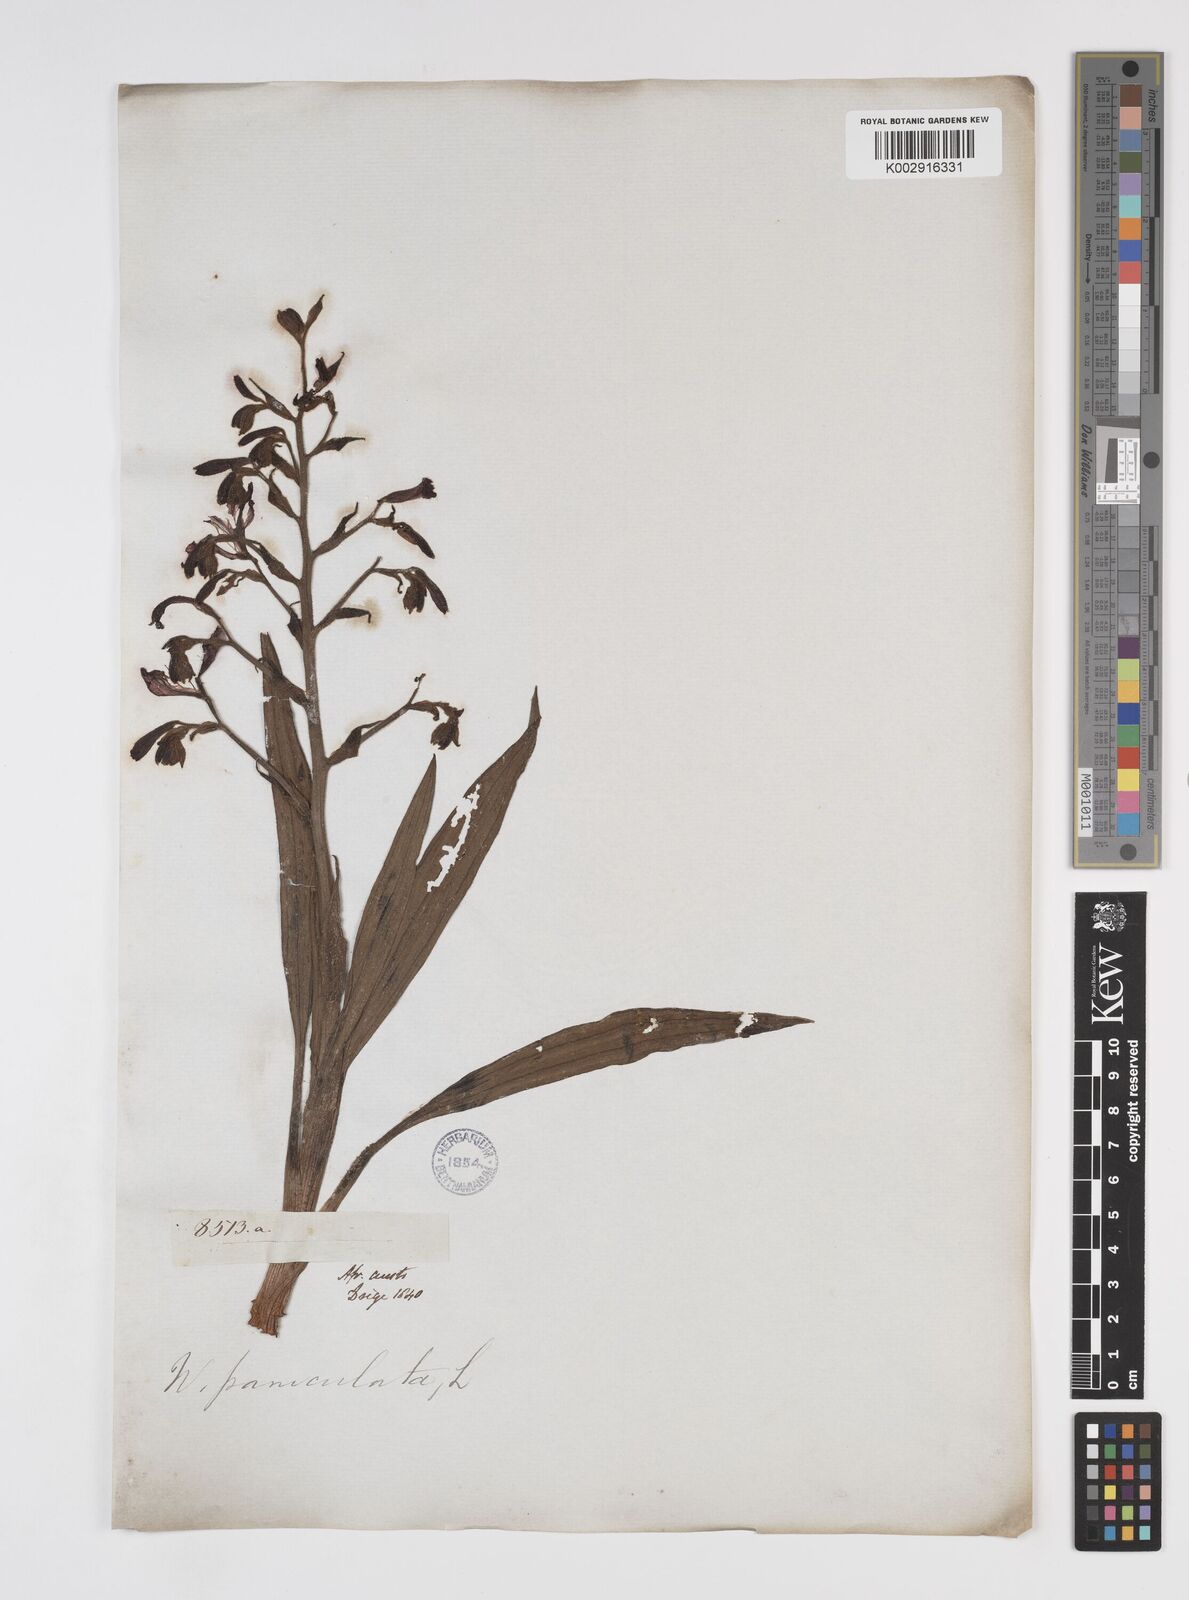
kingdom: Plantae
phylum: Tracheophyta
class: Liliopsida
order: Commelinales
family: Haemodoraceae
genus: Wachendorfia
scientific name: Wachendorfia paniculata
